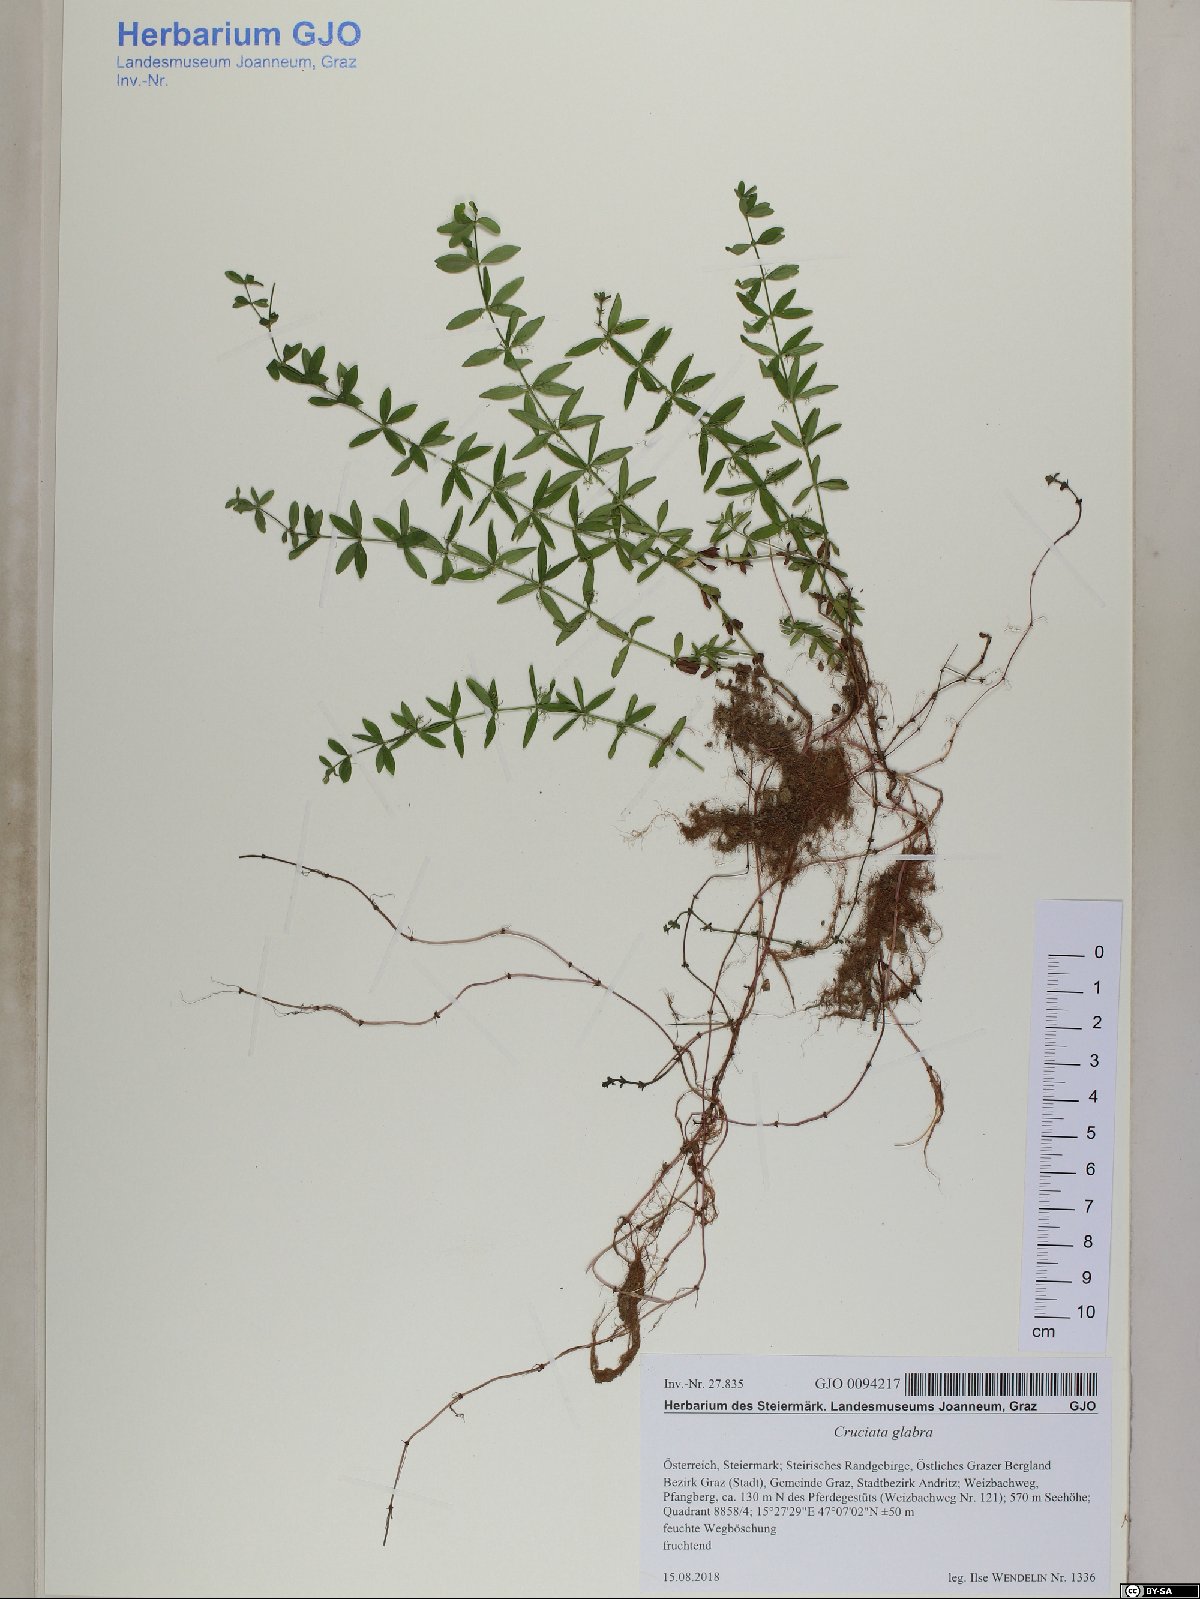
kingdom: Plantae
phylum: Tracheophyta
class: Magnoliopsida
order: Gentianales
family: Rubiaceae
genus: Cruciata
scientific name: Cruciata glabra
